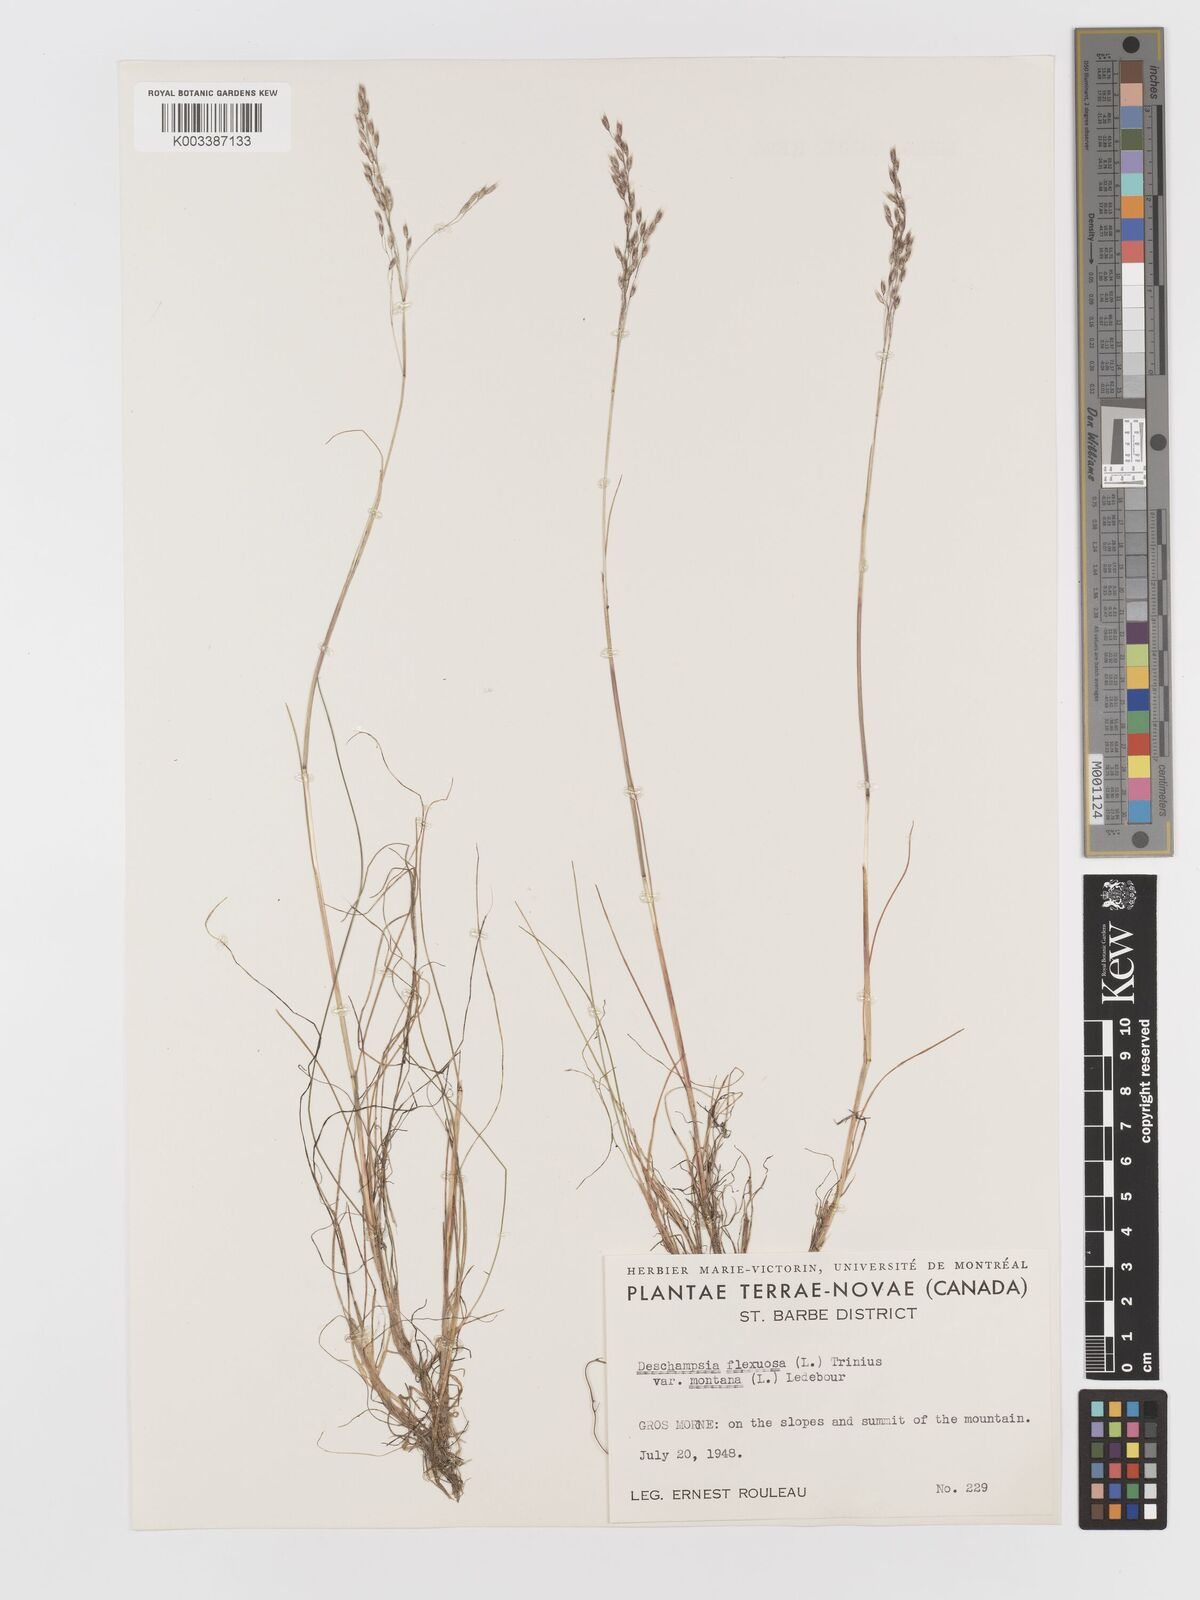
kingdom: Plantae
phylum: Tracheophyta
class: Liliopsida
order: Poales
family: Poaceae
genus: Avenella
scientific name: Avenella flexuosa
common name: Wavy hairgrass
